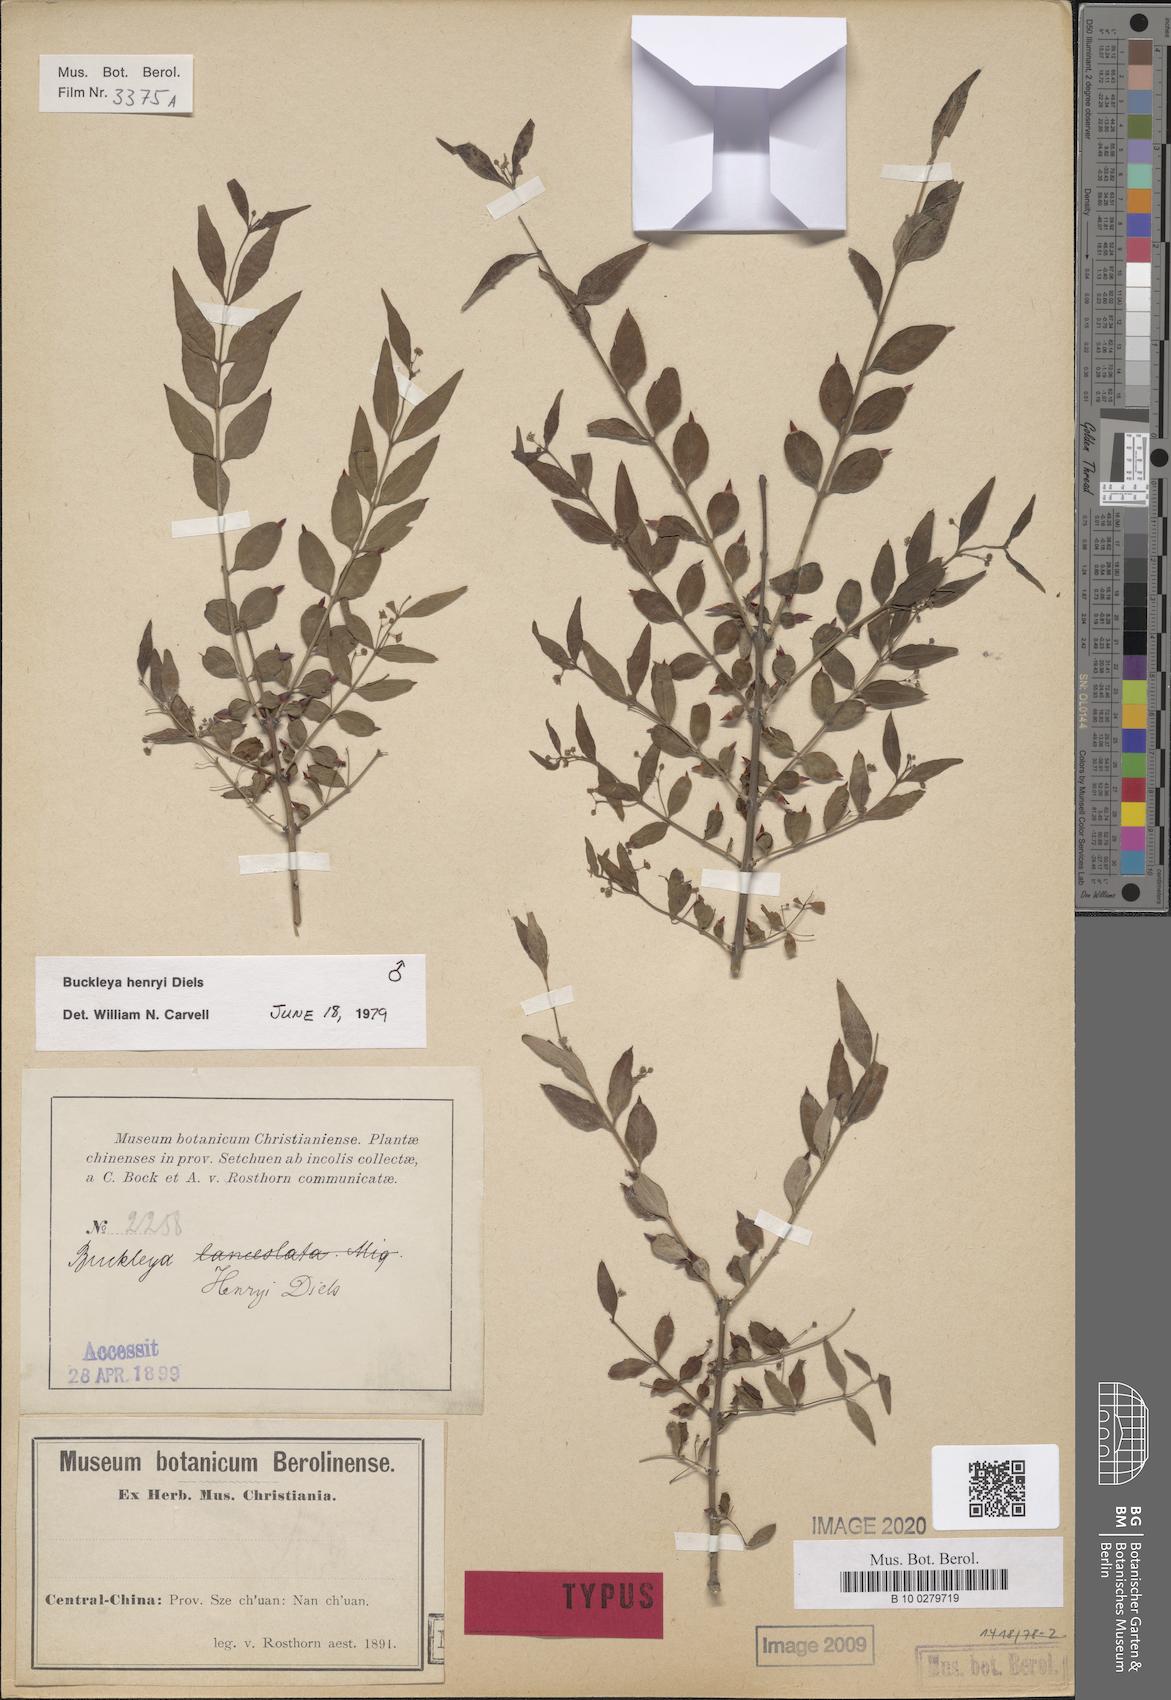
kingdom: Plantae
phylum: Tracheophyta
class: Magnoliopsida
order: Santalales
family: Thesiaceae
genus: Buckleya
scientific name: Buckleya lanceolata
